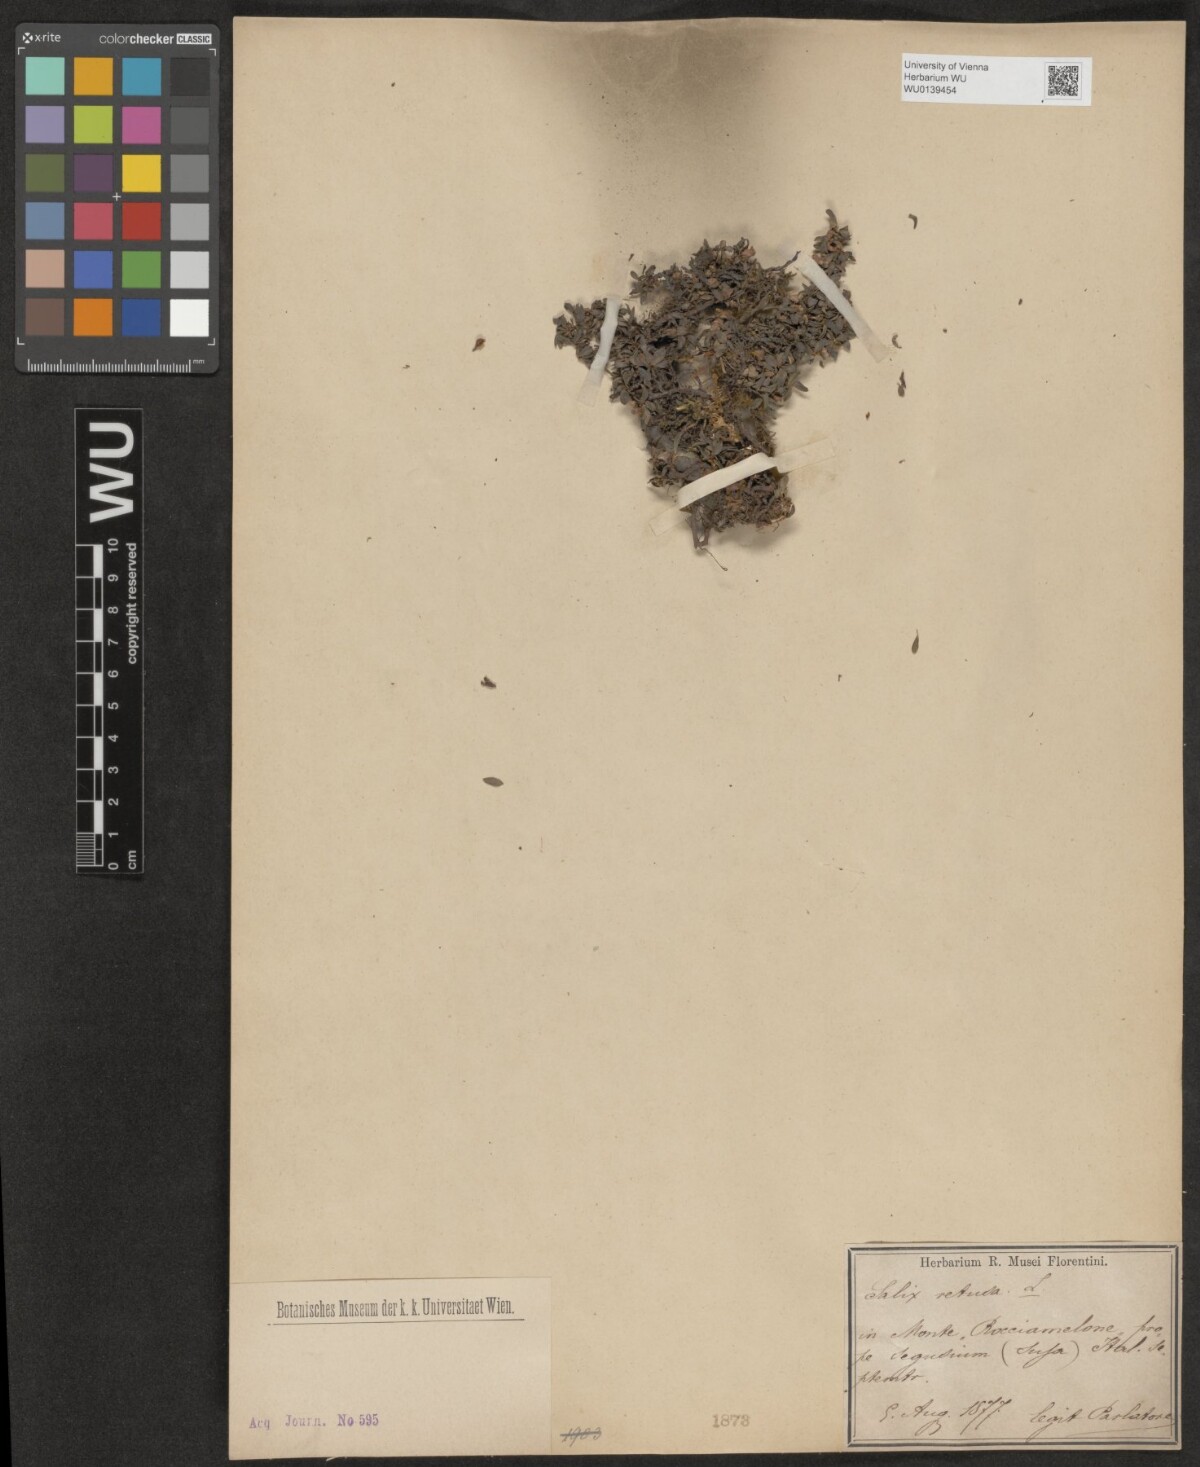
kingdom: Plantae
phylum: Tracheophyta
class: Magnoliopsida
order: Malpighiales
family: Salicaceae
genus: Salix
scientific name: Salix retusa
